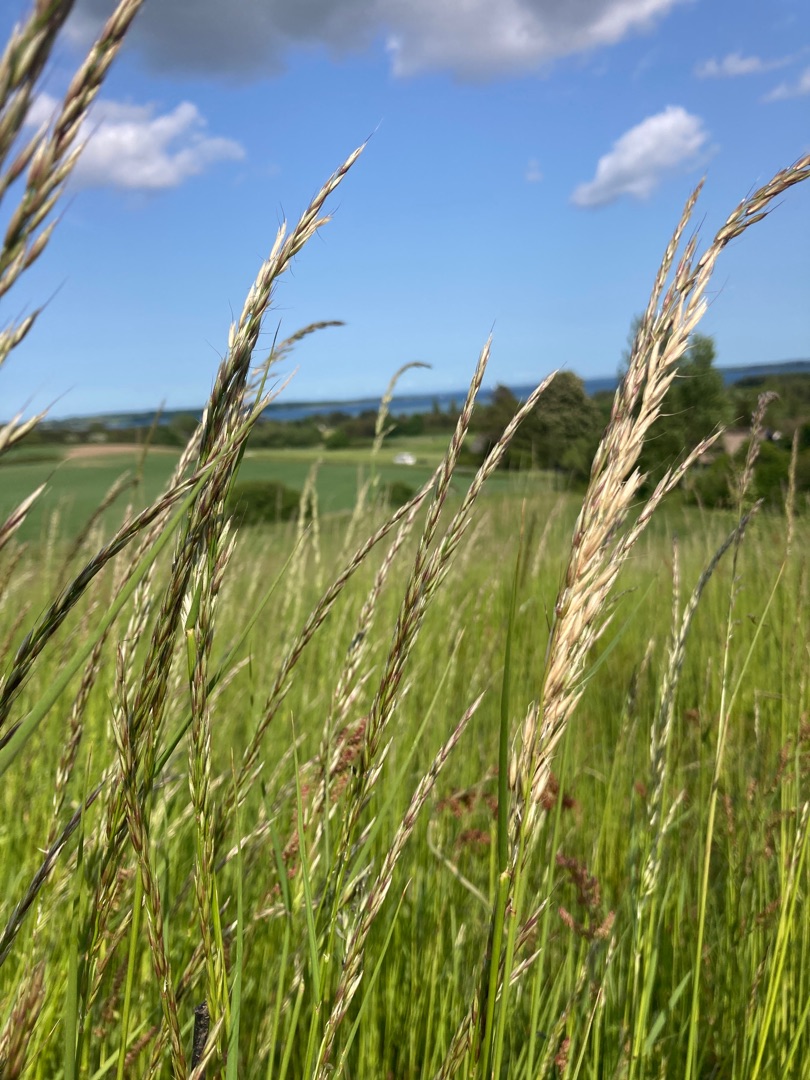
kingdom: Plantae
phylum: Tracheophyta
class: Liliopsida
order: Poales
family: Poaceae
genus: Arrhenatherum
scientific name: Arrhenatherum elatius
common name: Draphavre
